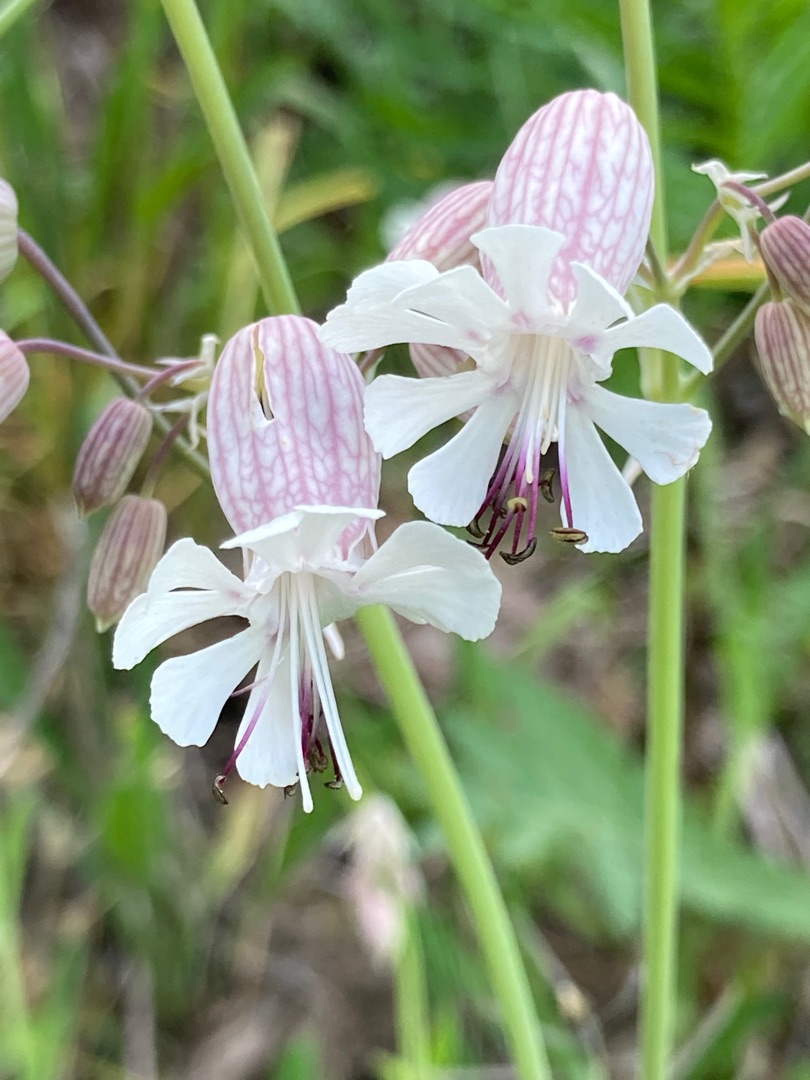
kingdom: Plantae
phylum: Tracheophyta
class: Magnoliopsida
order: Caryophyllales
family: Caryophyllaceae
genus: Silene
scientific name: Silene vulgaris
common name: Blæresmælde
